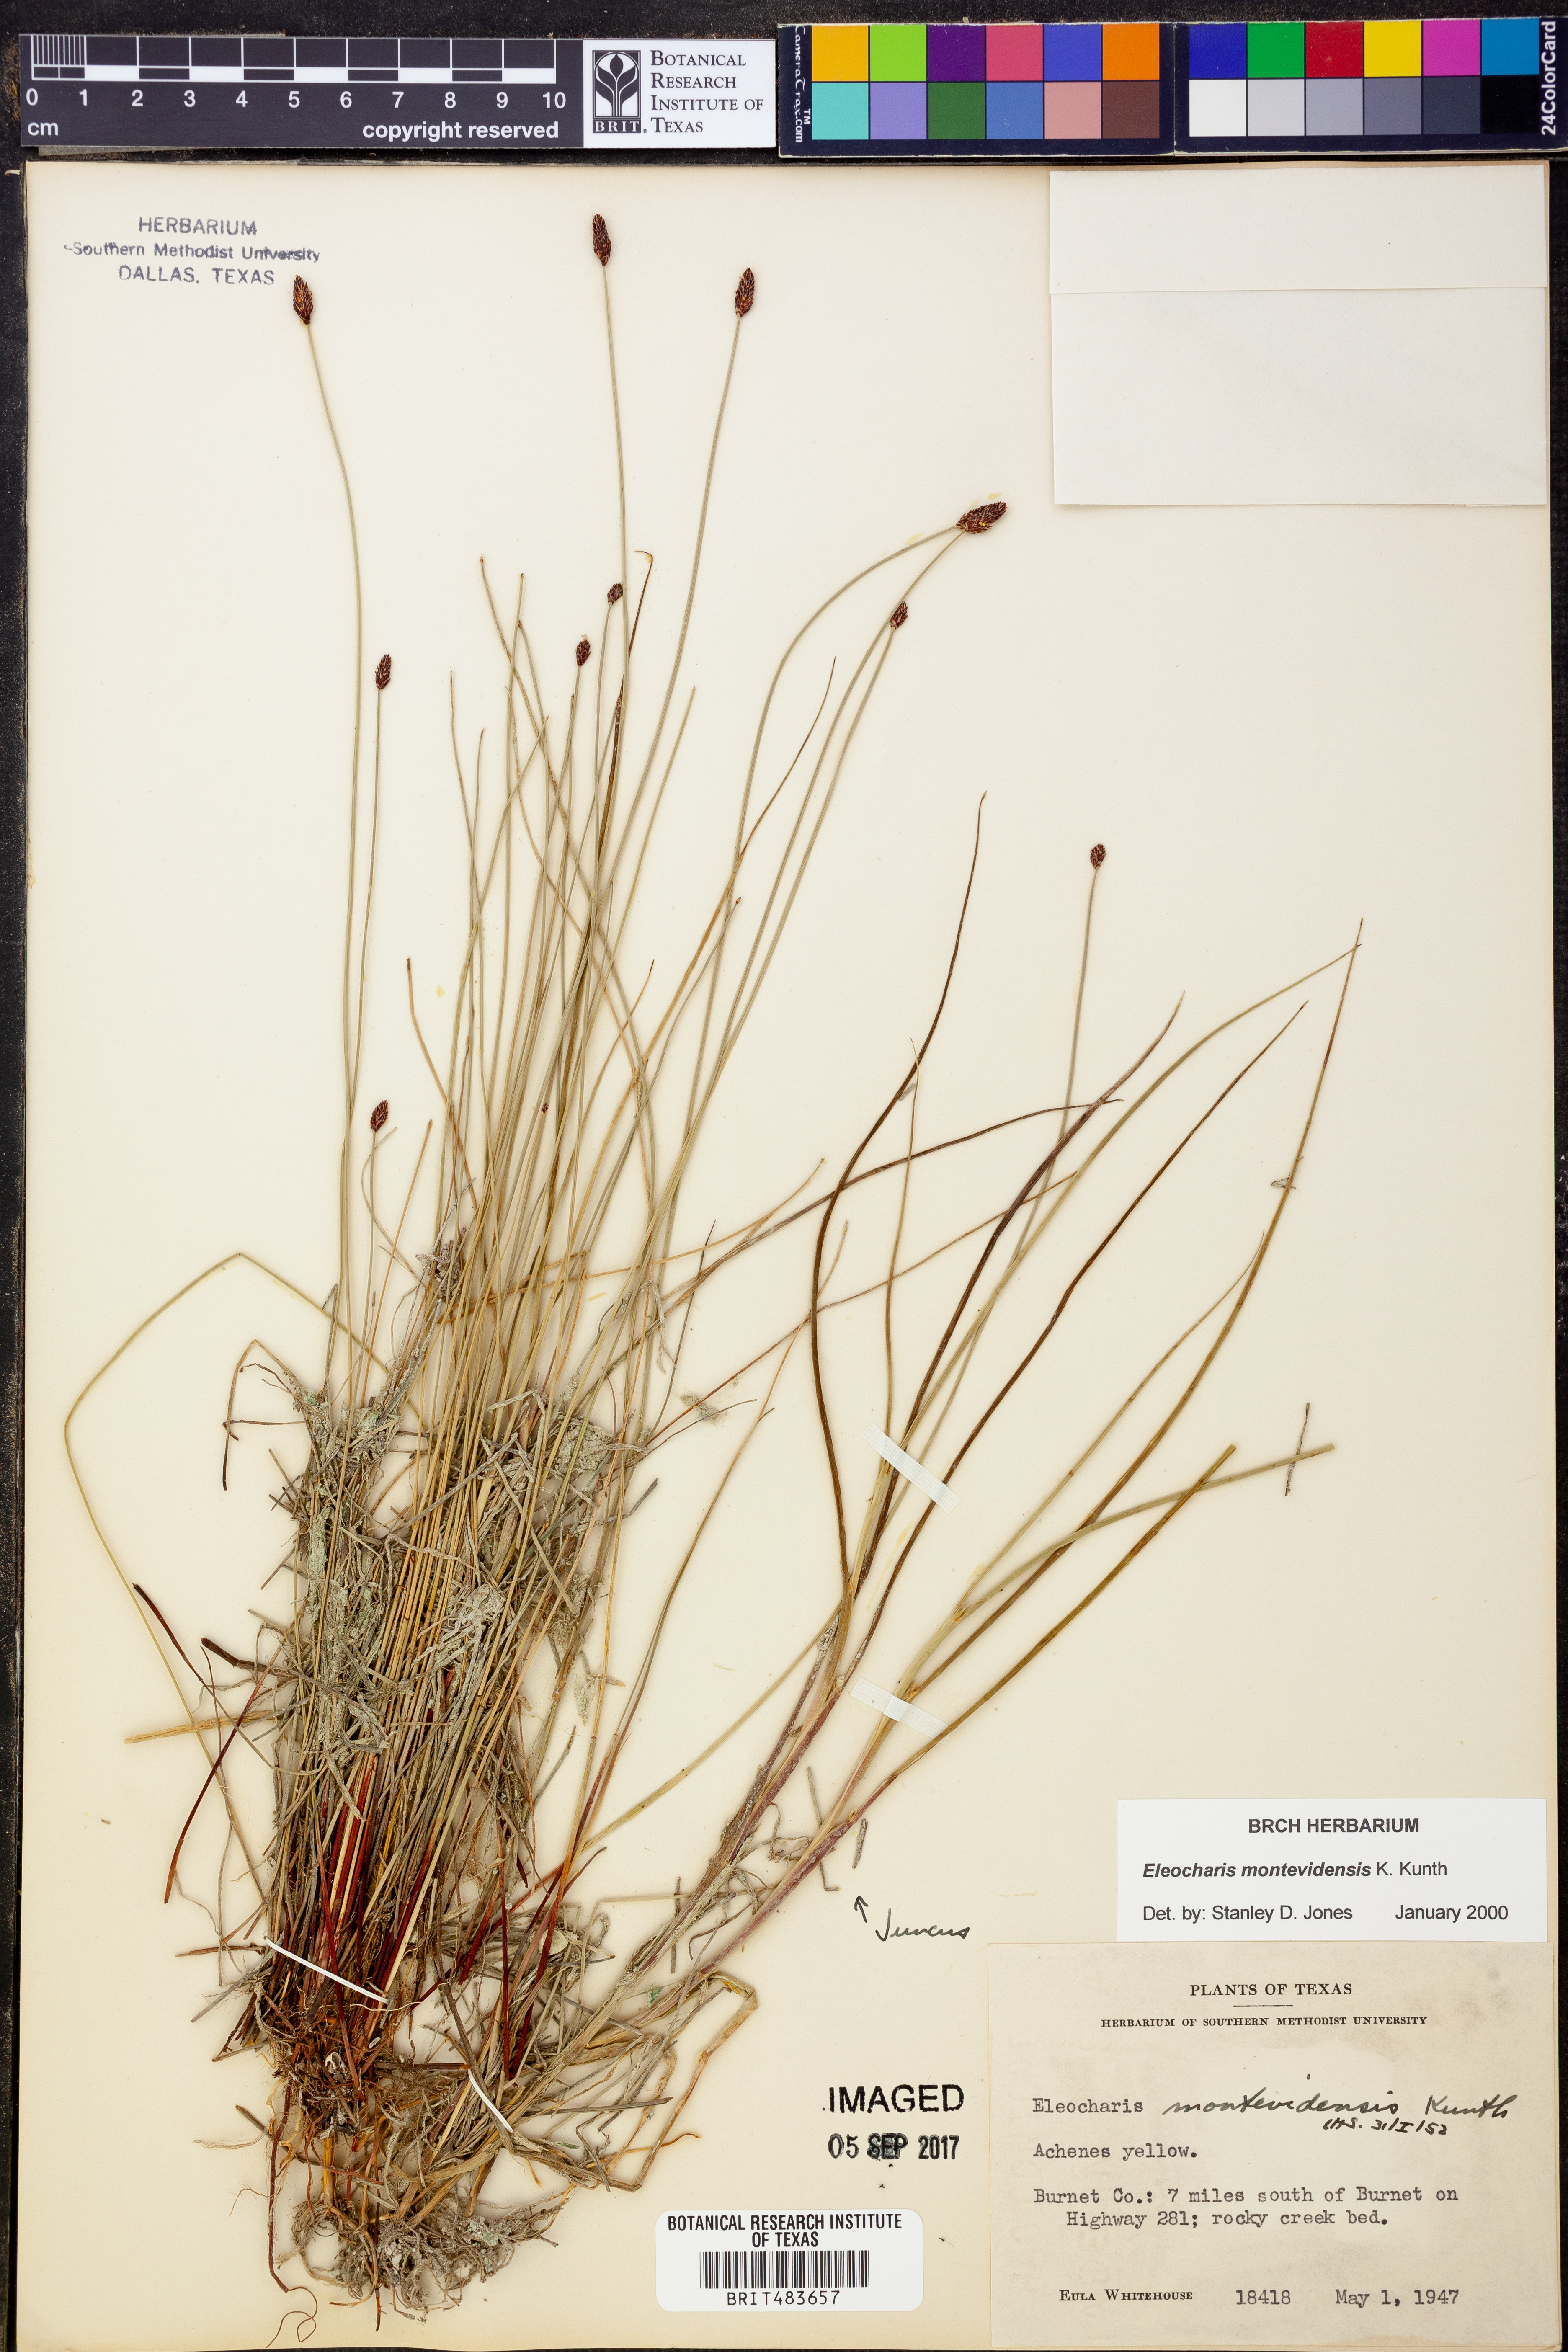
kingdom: Plantae
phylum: Tracheophyta
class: Liliopsida
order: Poales
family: Cyperaceae
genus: Eleocharis
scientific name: Eleocharis montevidensis
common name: Sand spike-rush
